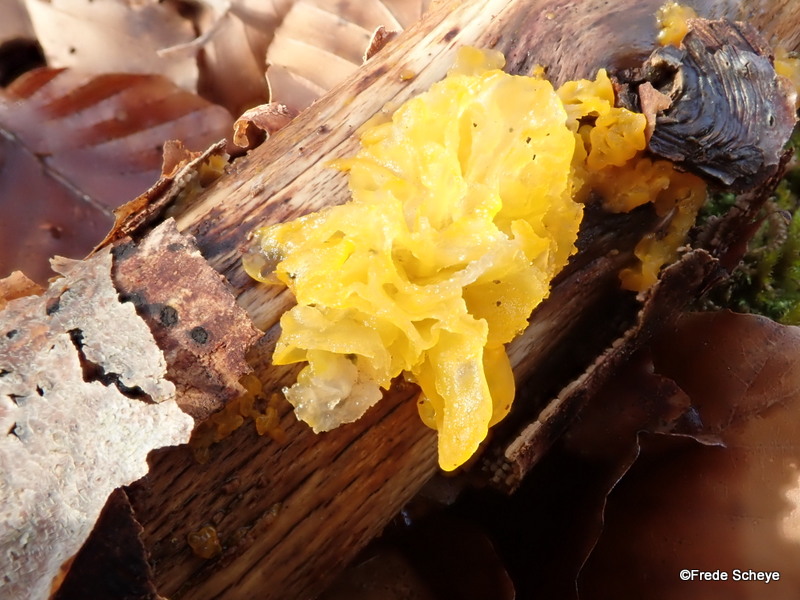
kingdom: Fungi
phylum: Basidiomycota
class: Tremellomycetes
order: Tremellales
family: Tremellaceae
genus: Tremella
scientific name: Tremella mesenterica
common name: gul bævresvamp
